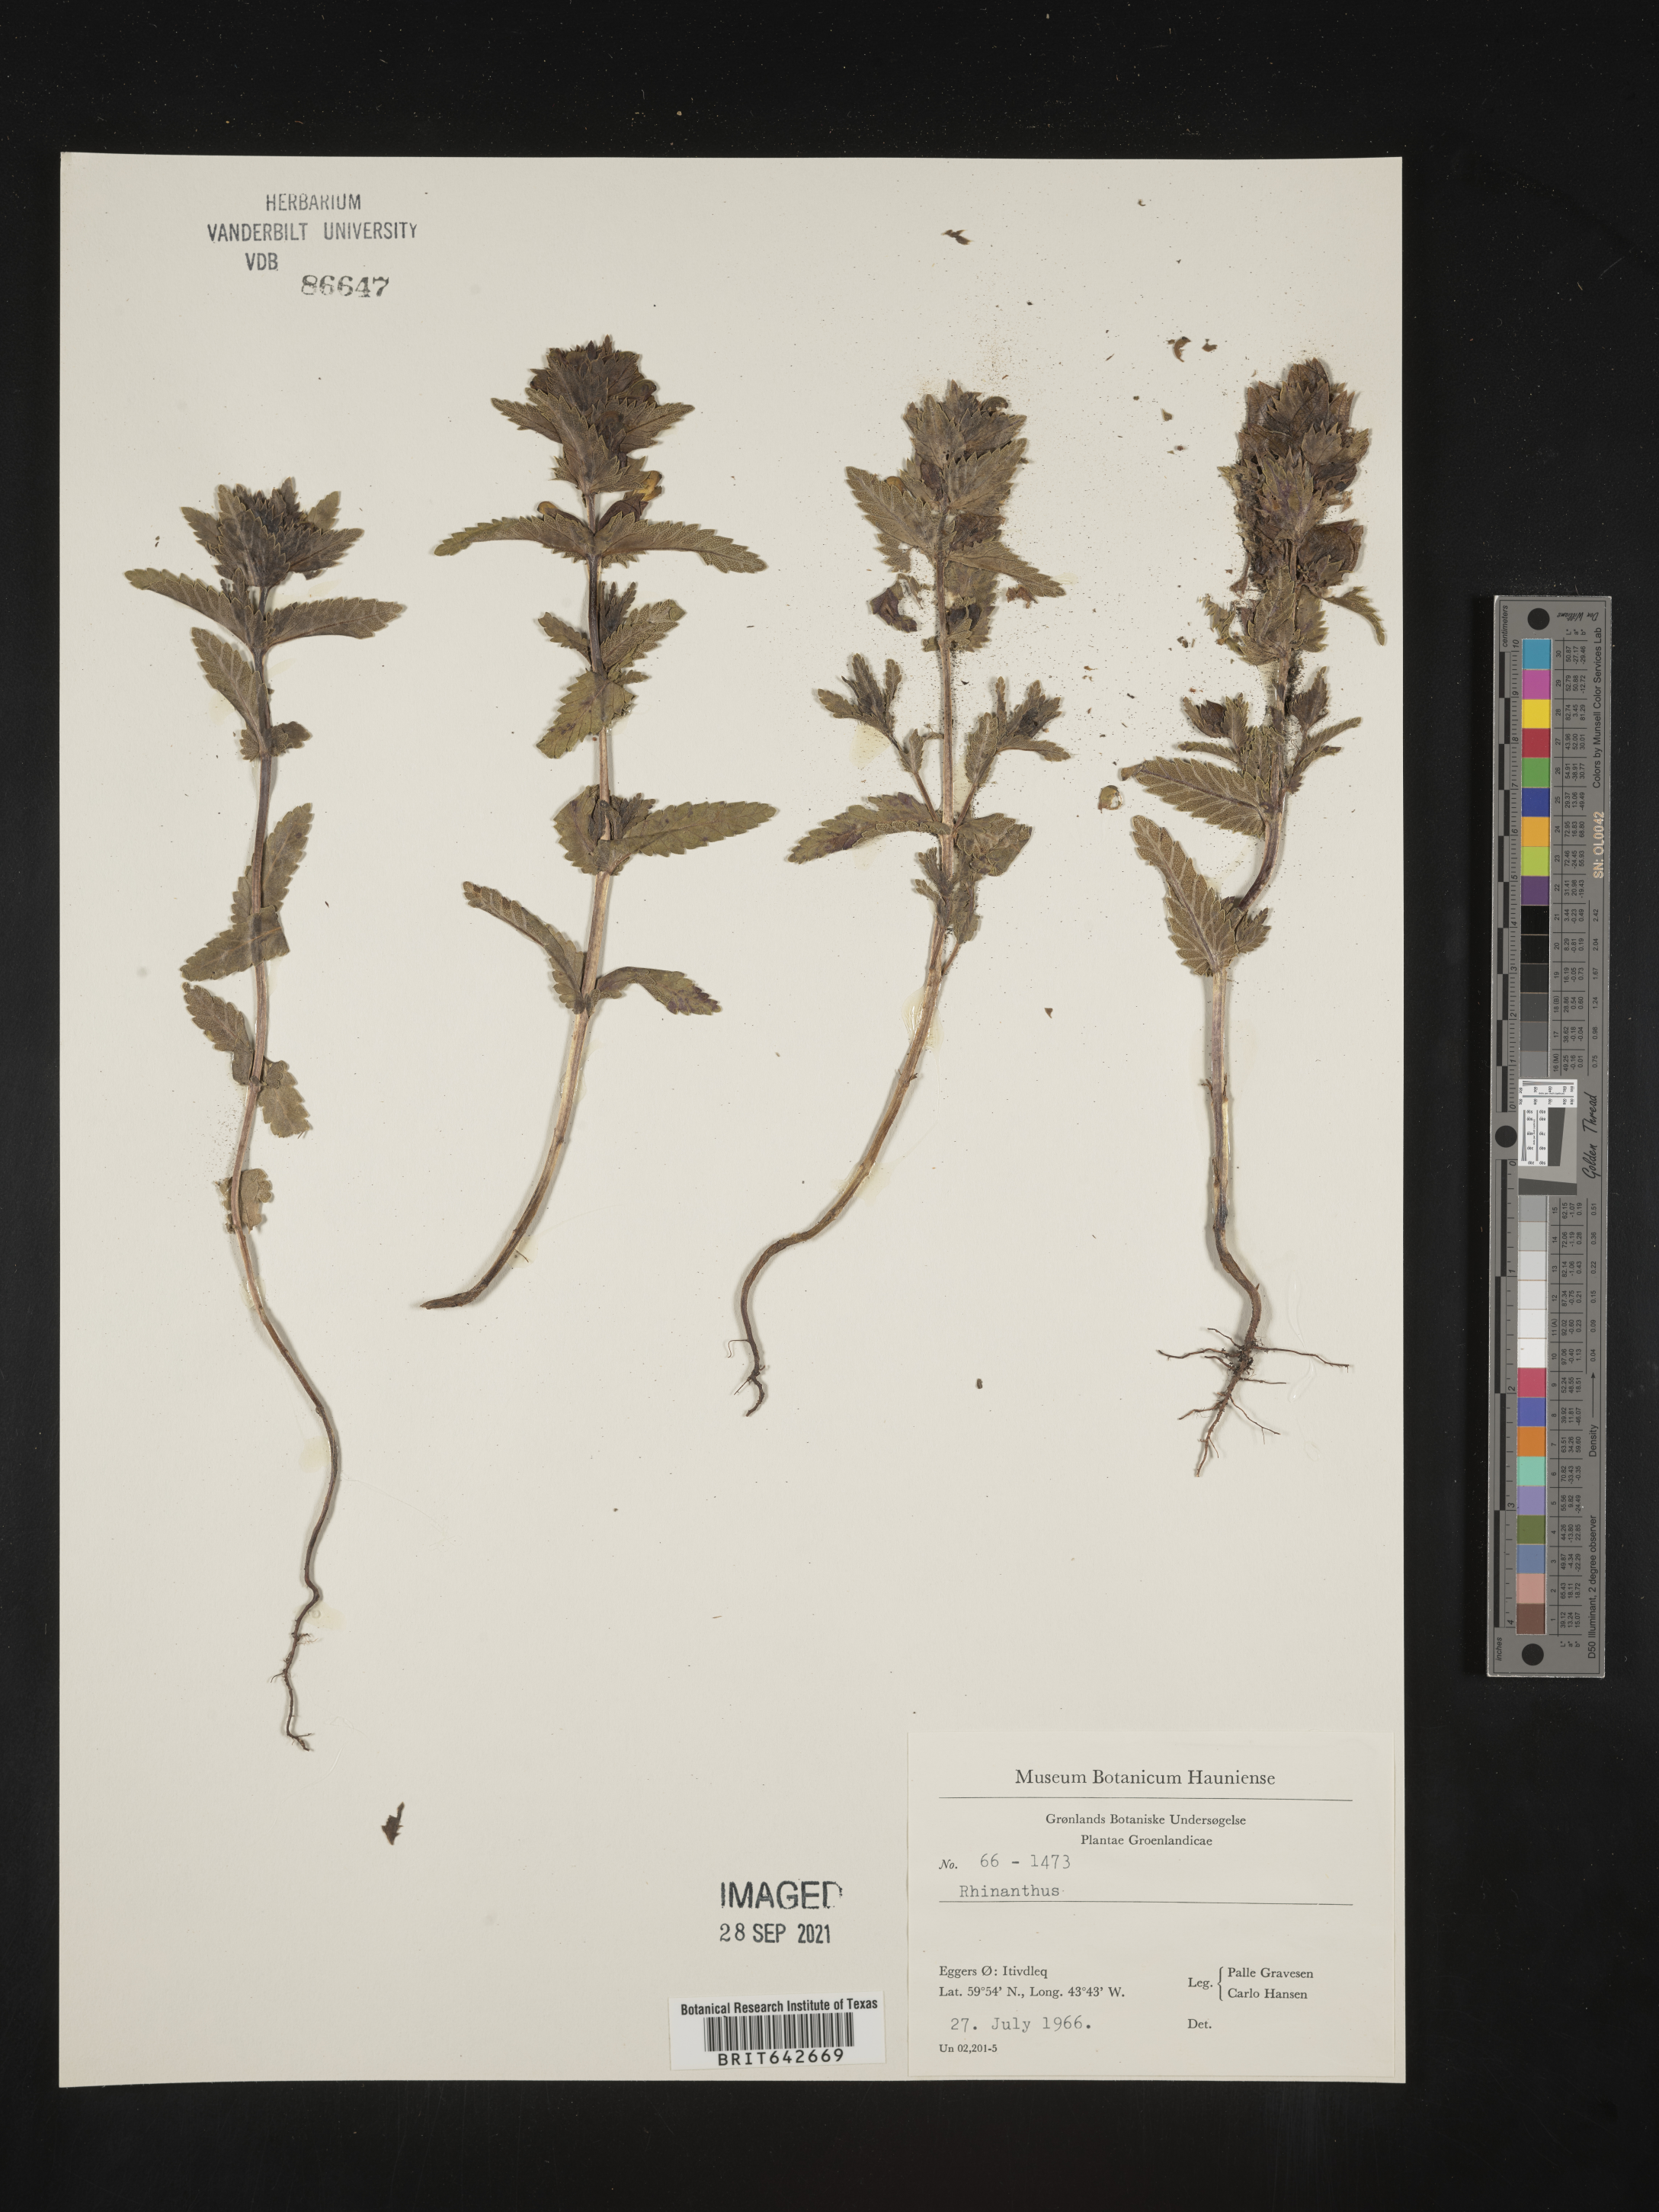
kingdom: Plantae
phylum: Tracheophyta
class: Magnoliopsida
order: Lamiales
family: Orobanchaceae
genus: Rhinanthus
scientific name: Rhinanthus
